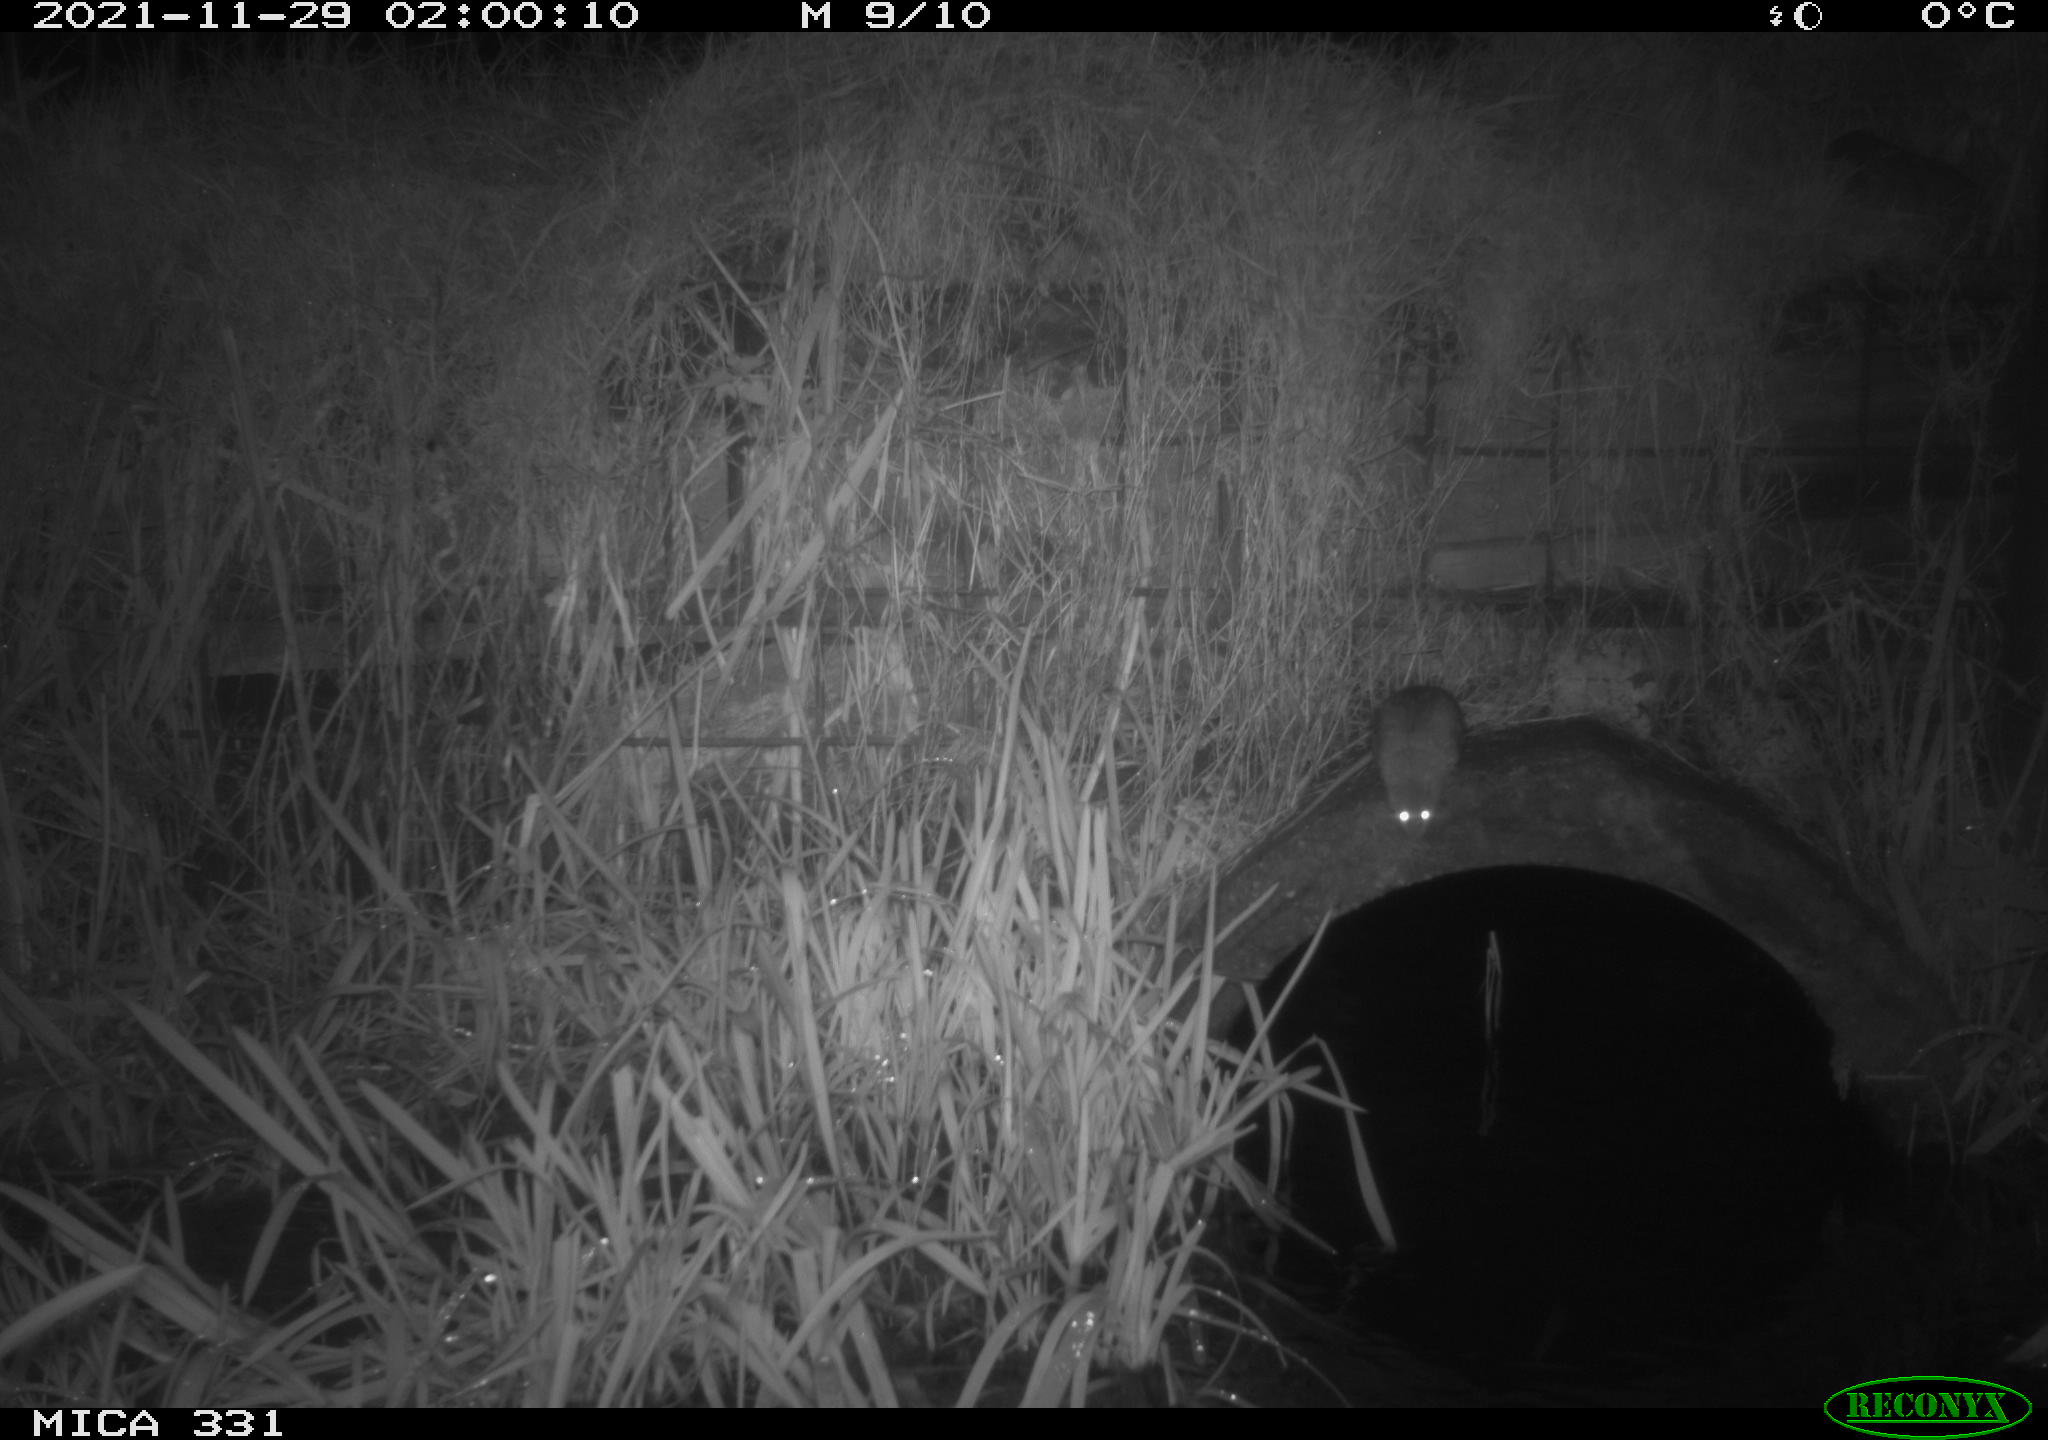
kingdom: Animalia
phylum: Chordata
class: Mammalia
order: Rodentia
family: Muridae
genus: Rattus
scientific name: Rattus norvegicus
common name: Brown rat
